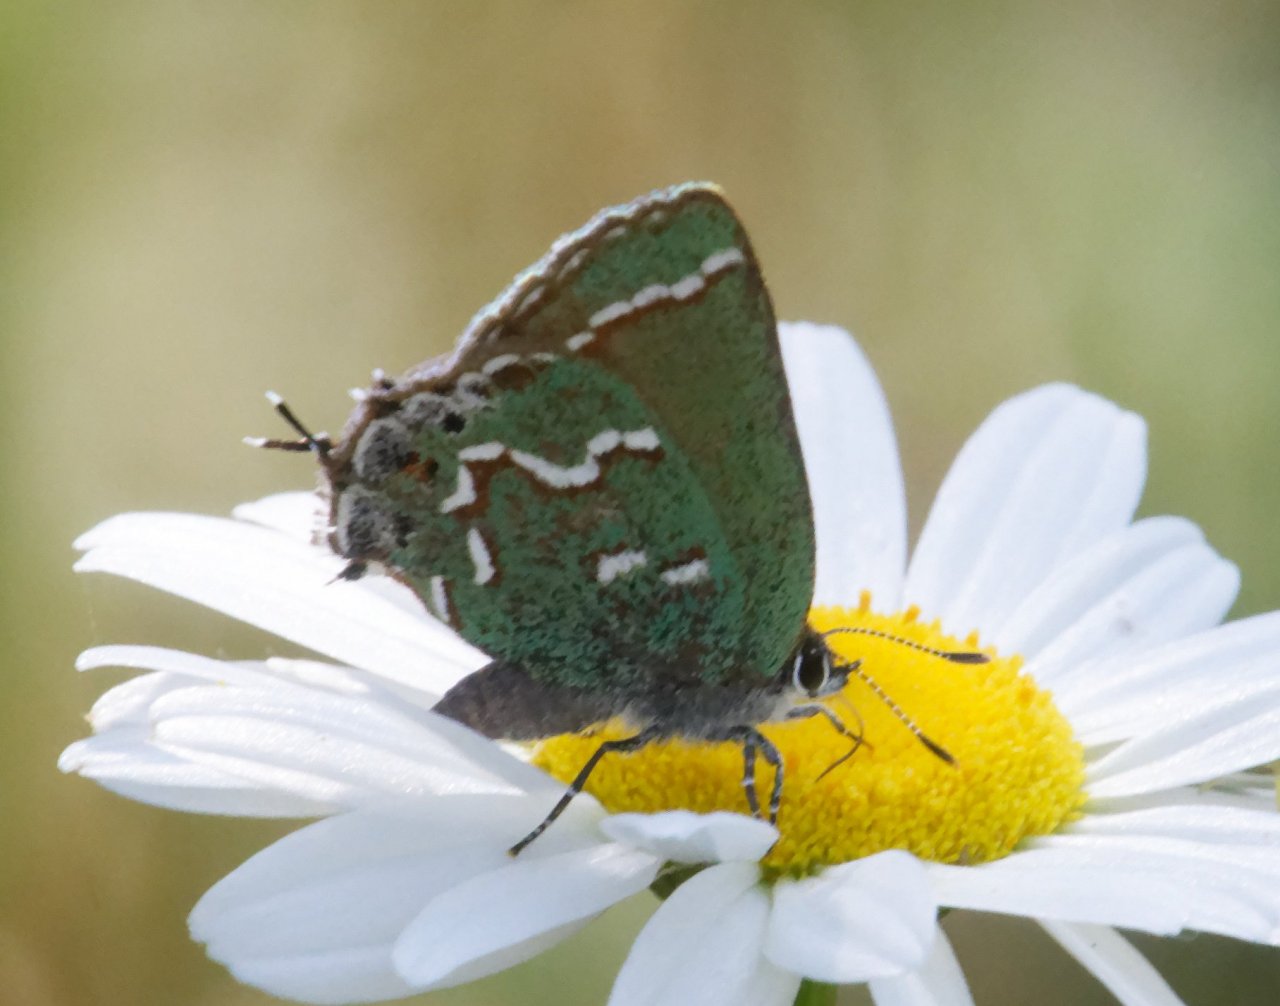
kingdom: Animalia
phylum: Arthropoda
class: Insecta
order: Lepidoptera
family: Lycaenidae
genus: Mitoura
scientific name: Mitoura gryneus
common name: Juniper Hairstreak
